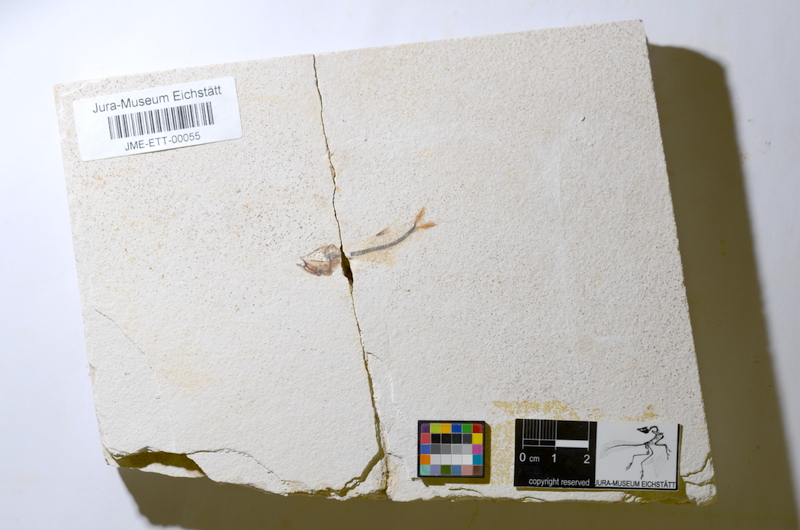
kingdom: Animalia
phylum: Chordata
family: Ascalaboidae
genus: Ebertichthys
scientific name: Ebertichthys ettlingensis
